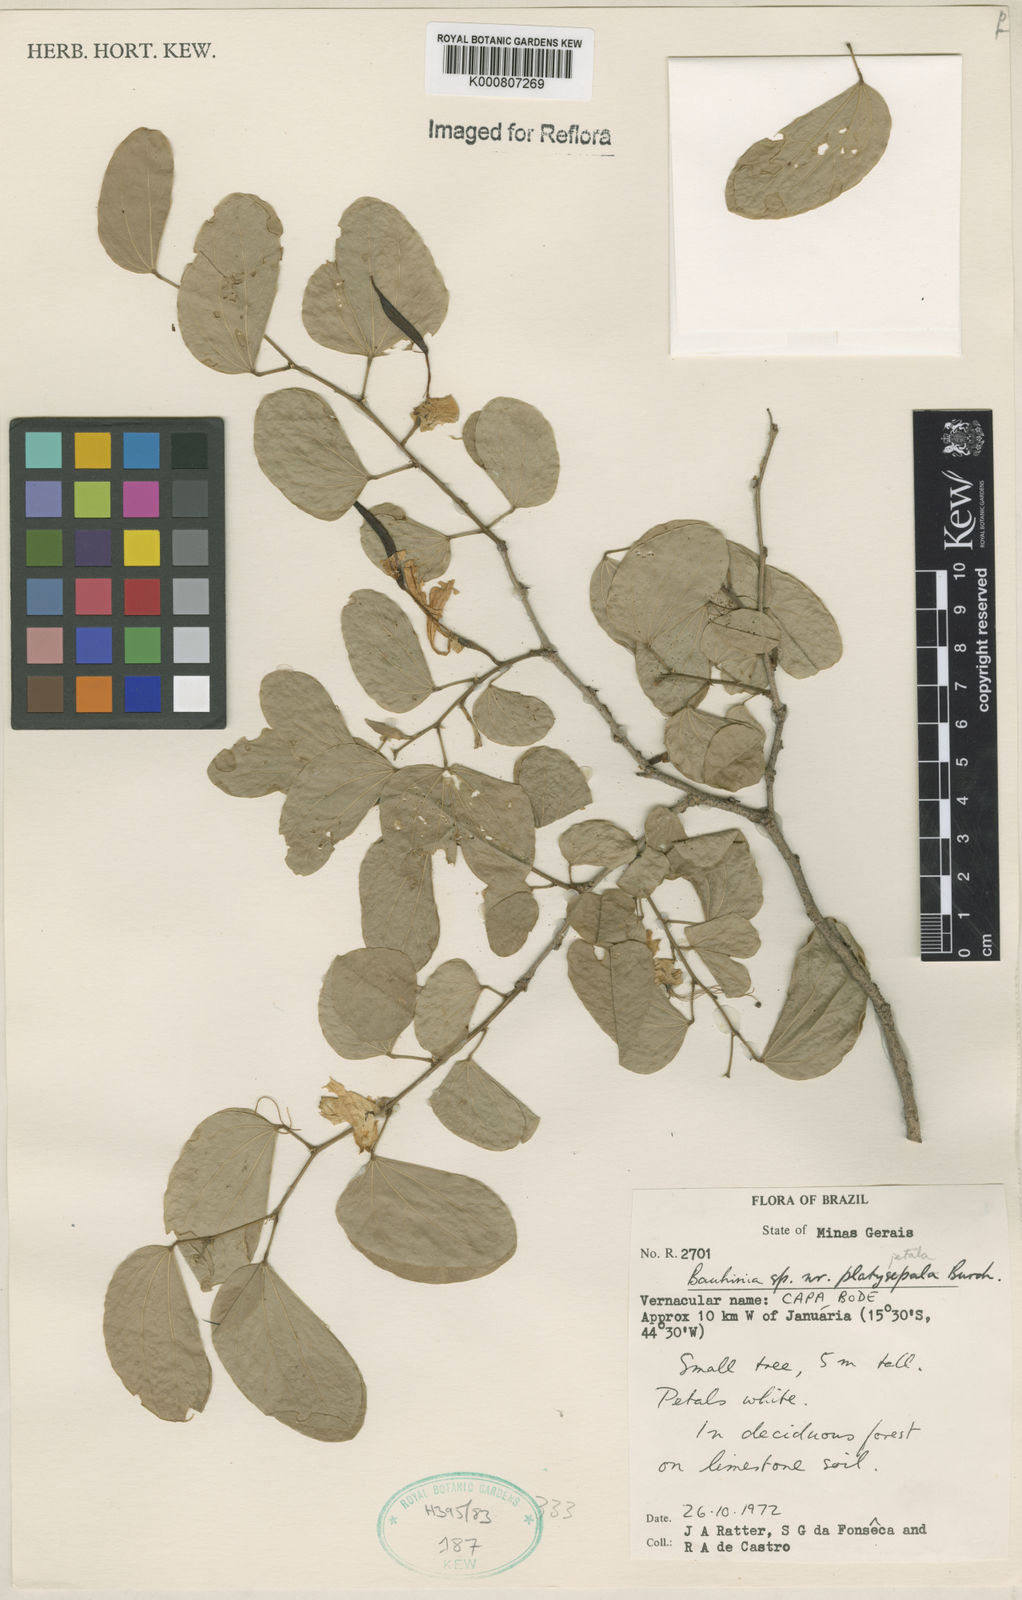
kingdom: Plantae
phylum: Tracheophyta
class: Magnoliopsida
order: Fabales
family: Fabaceae
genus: Bauhinia
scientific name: Bauhinia platypetala
